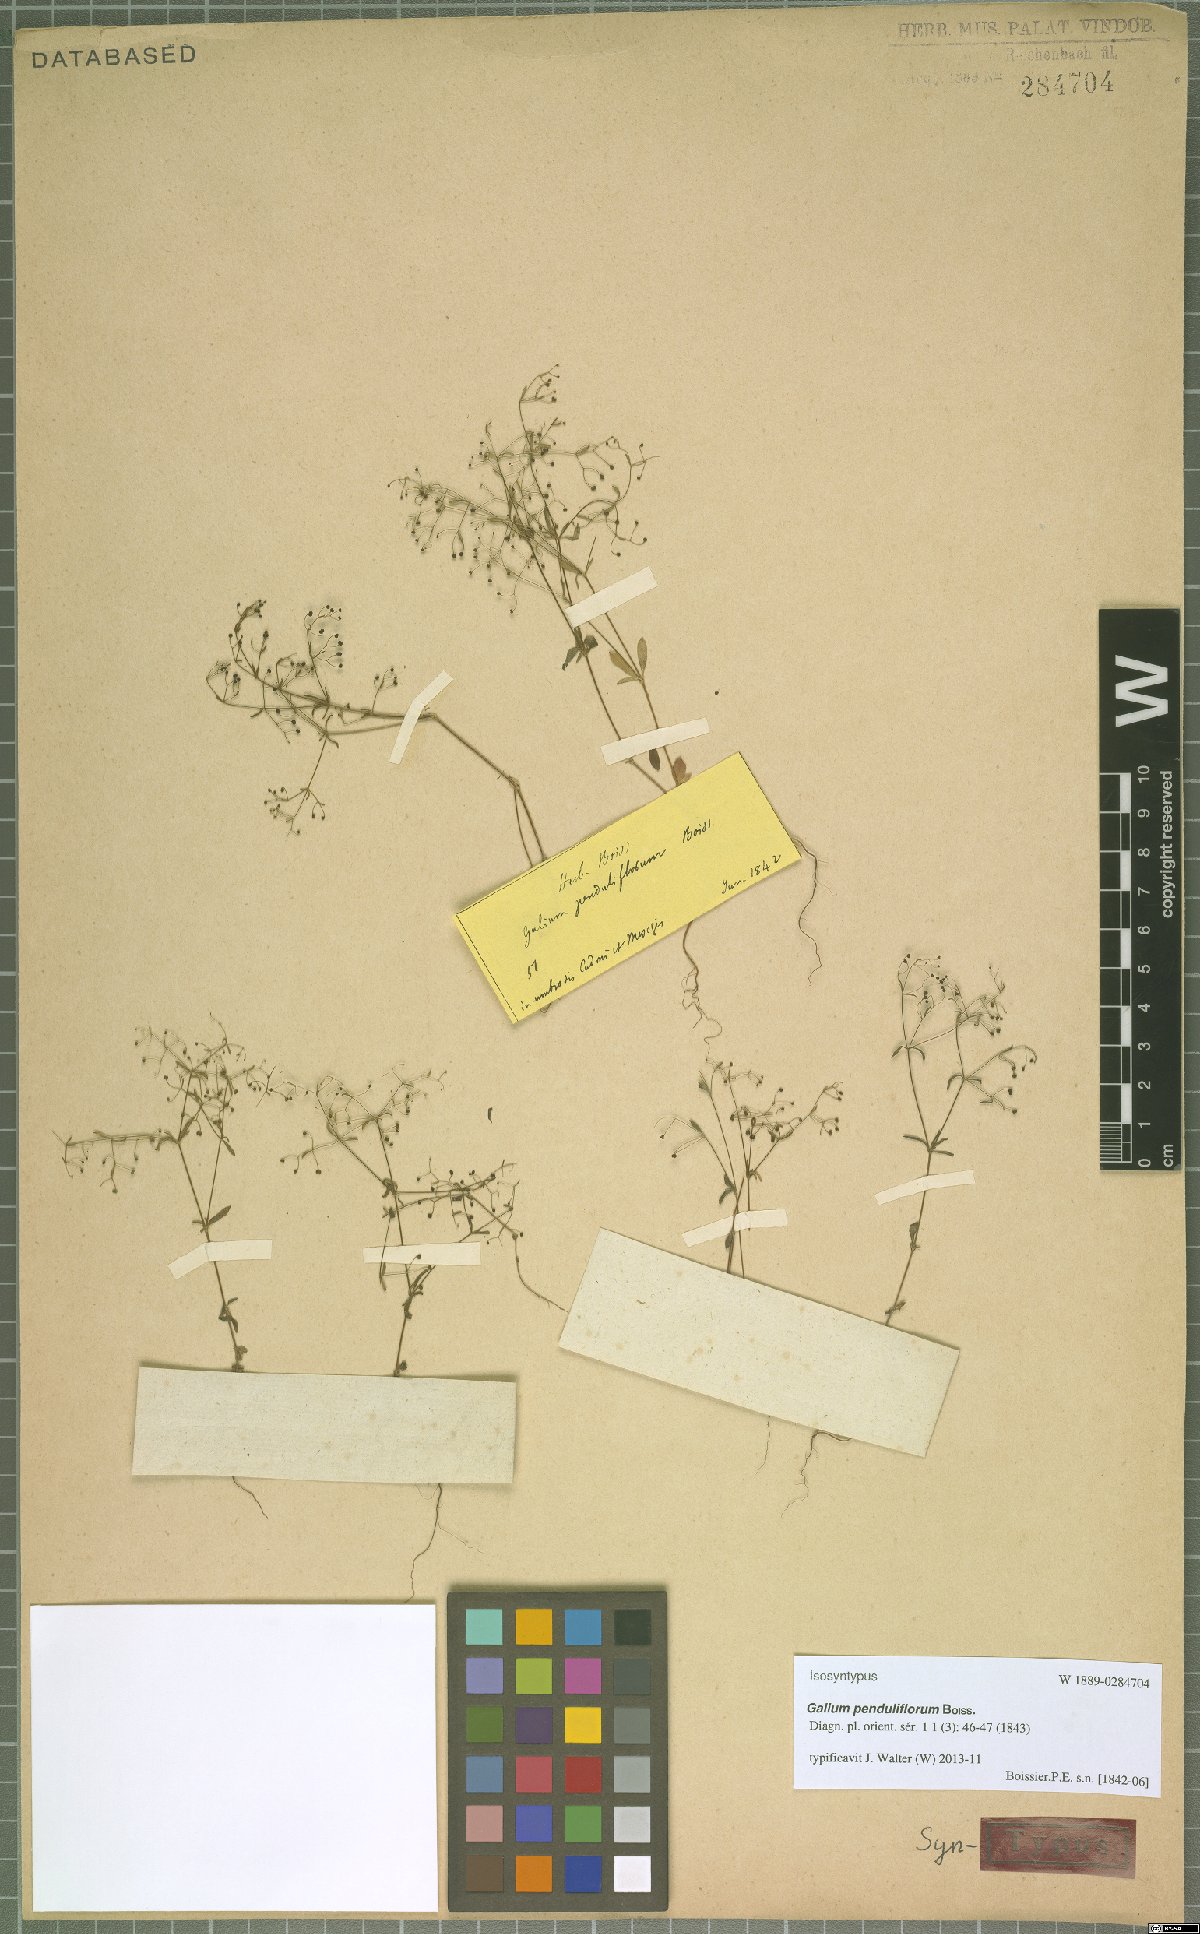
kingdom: Plantae
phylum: Tracheophyta
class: Magnoliopsida
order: Gentianales
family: Rubiaceae
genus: Galium
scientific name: Galium penduliflorum
